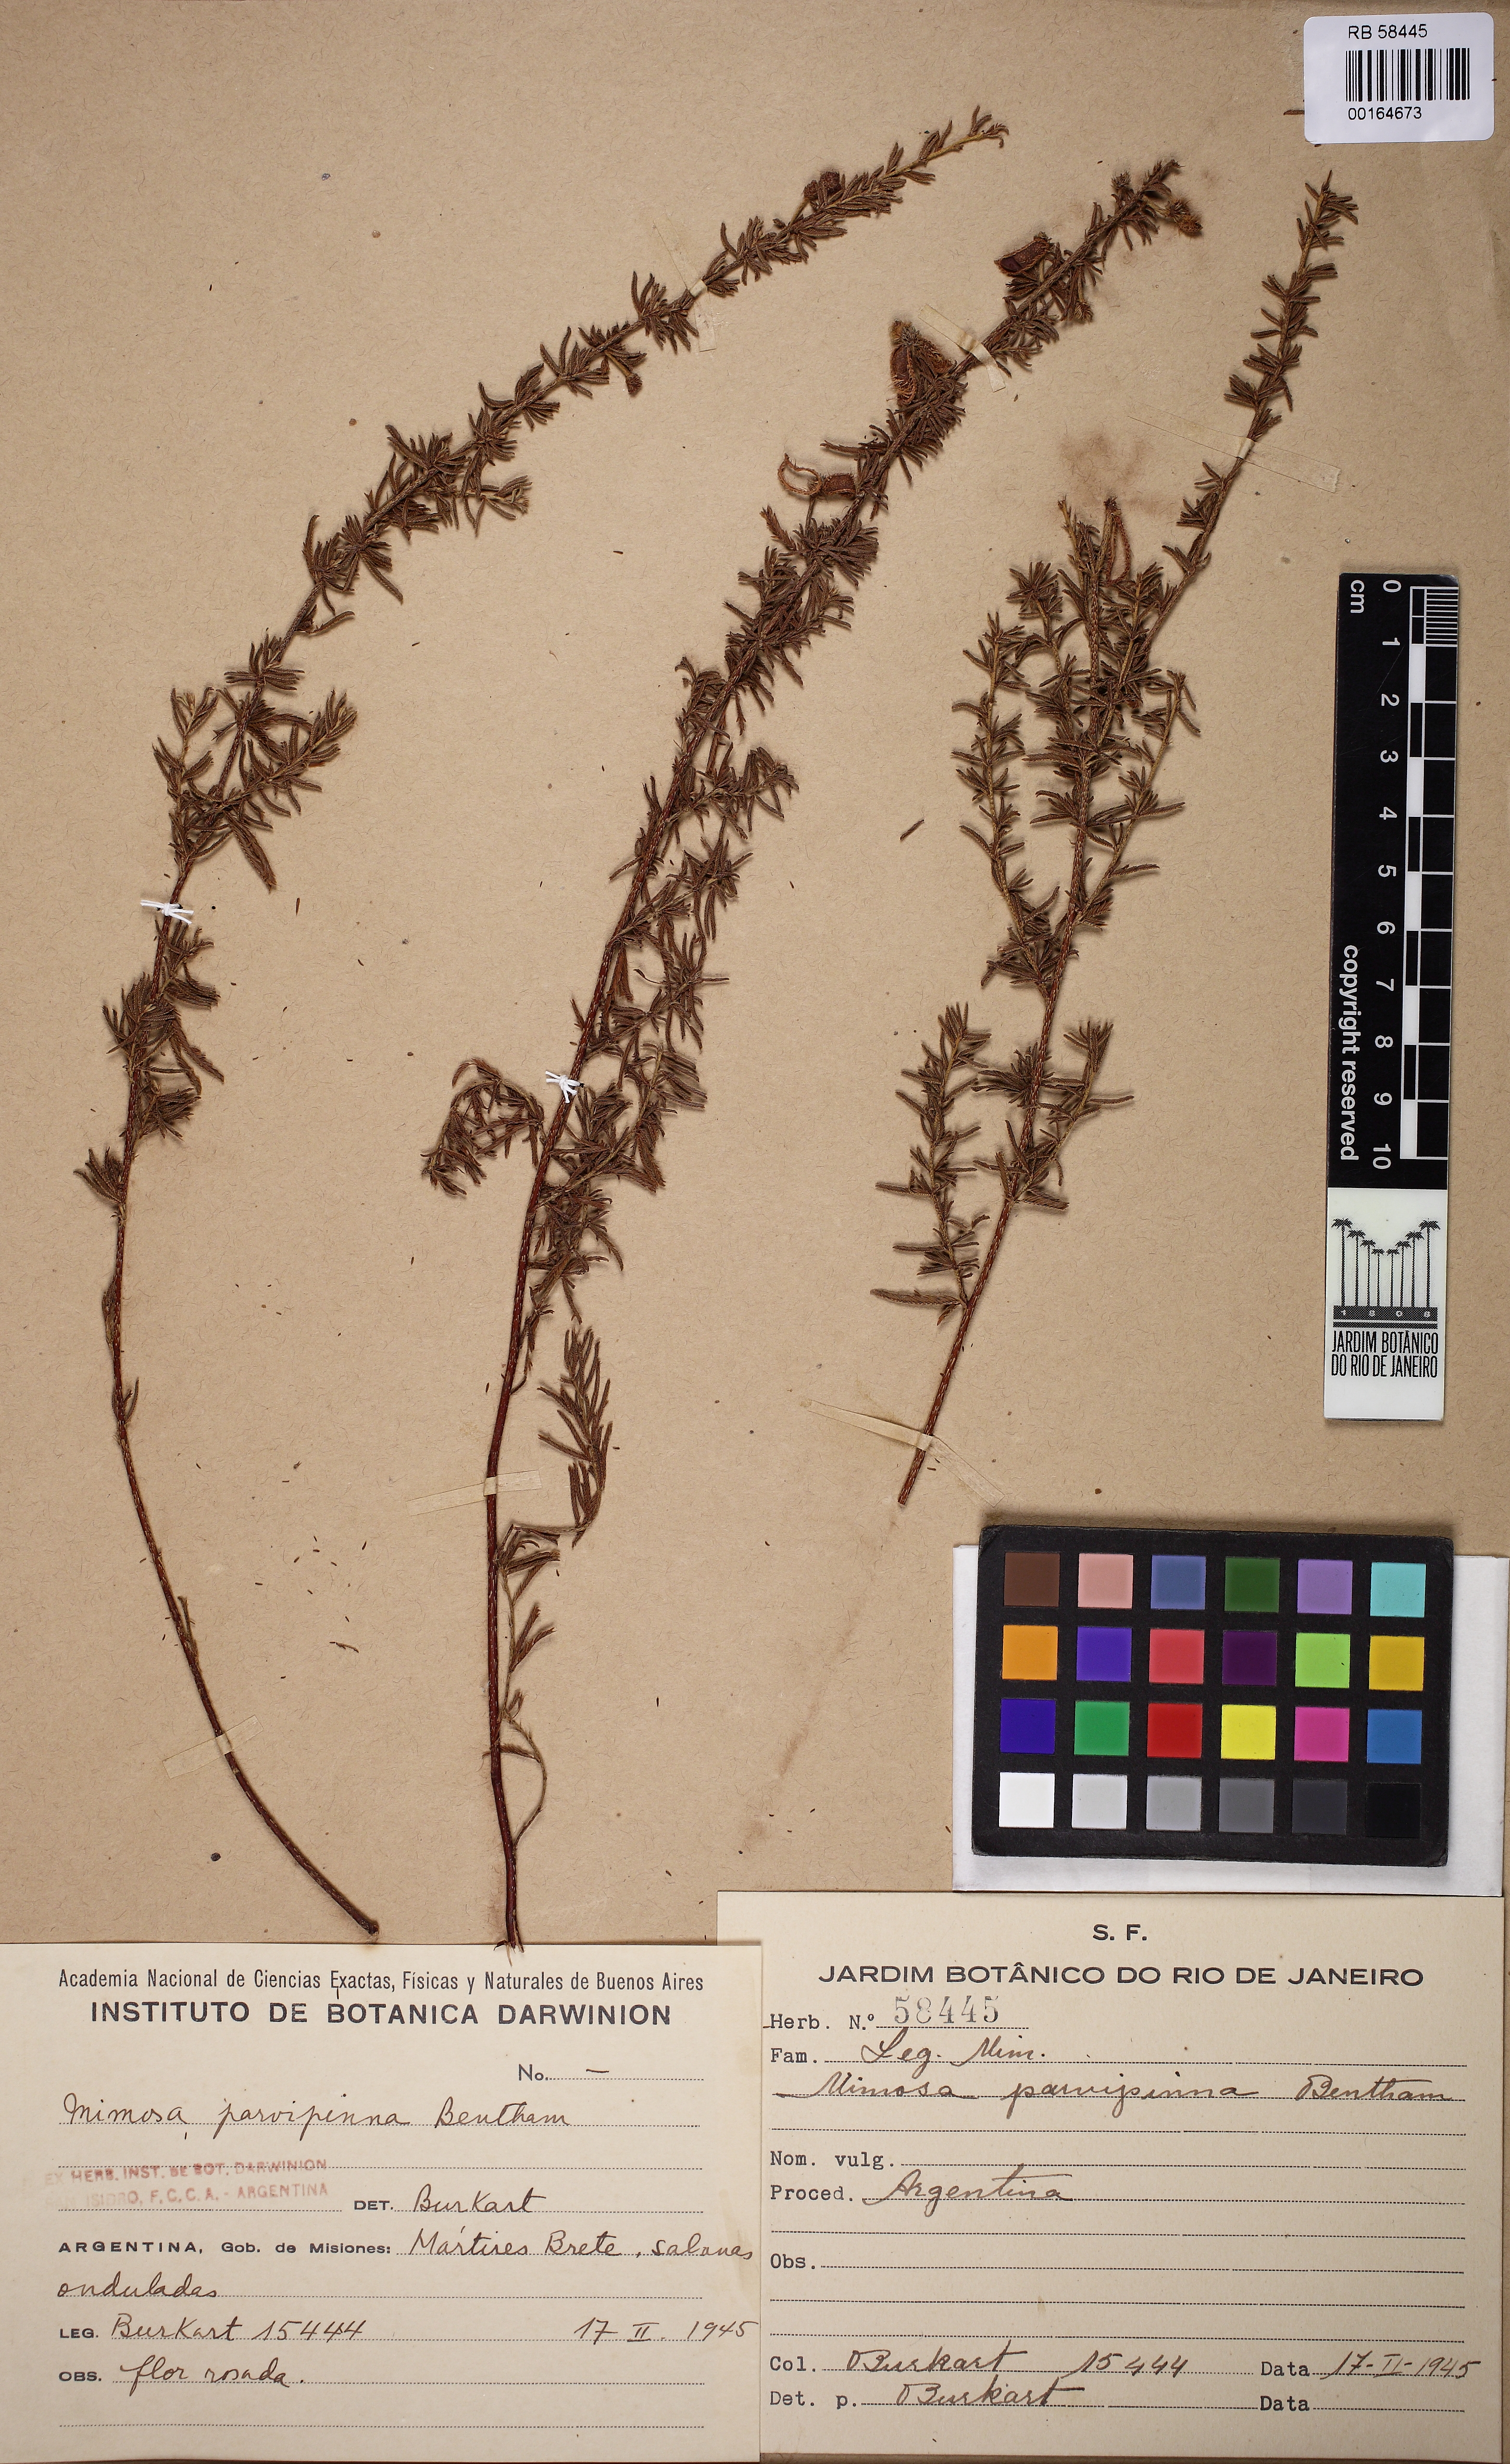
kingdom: Plantae
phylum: Tracheophyta
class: Magnoliopsida
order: Fabales
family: Fabaceae
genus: Mimosa
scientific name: Mimosa parvipinna
